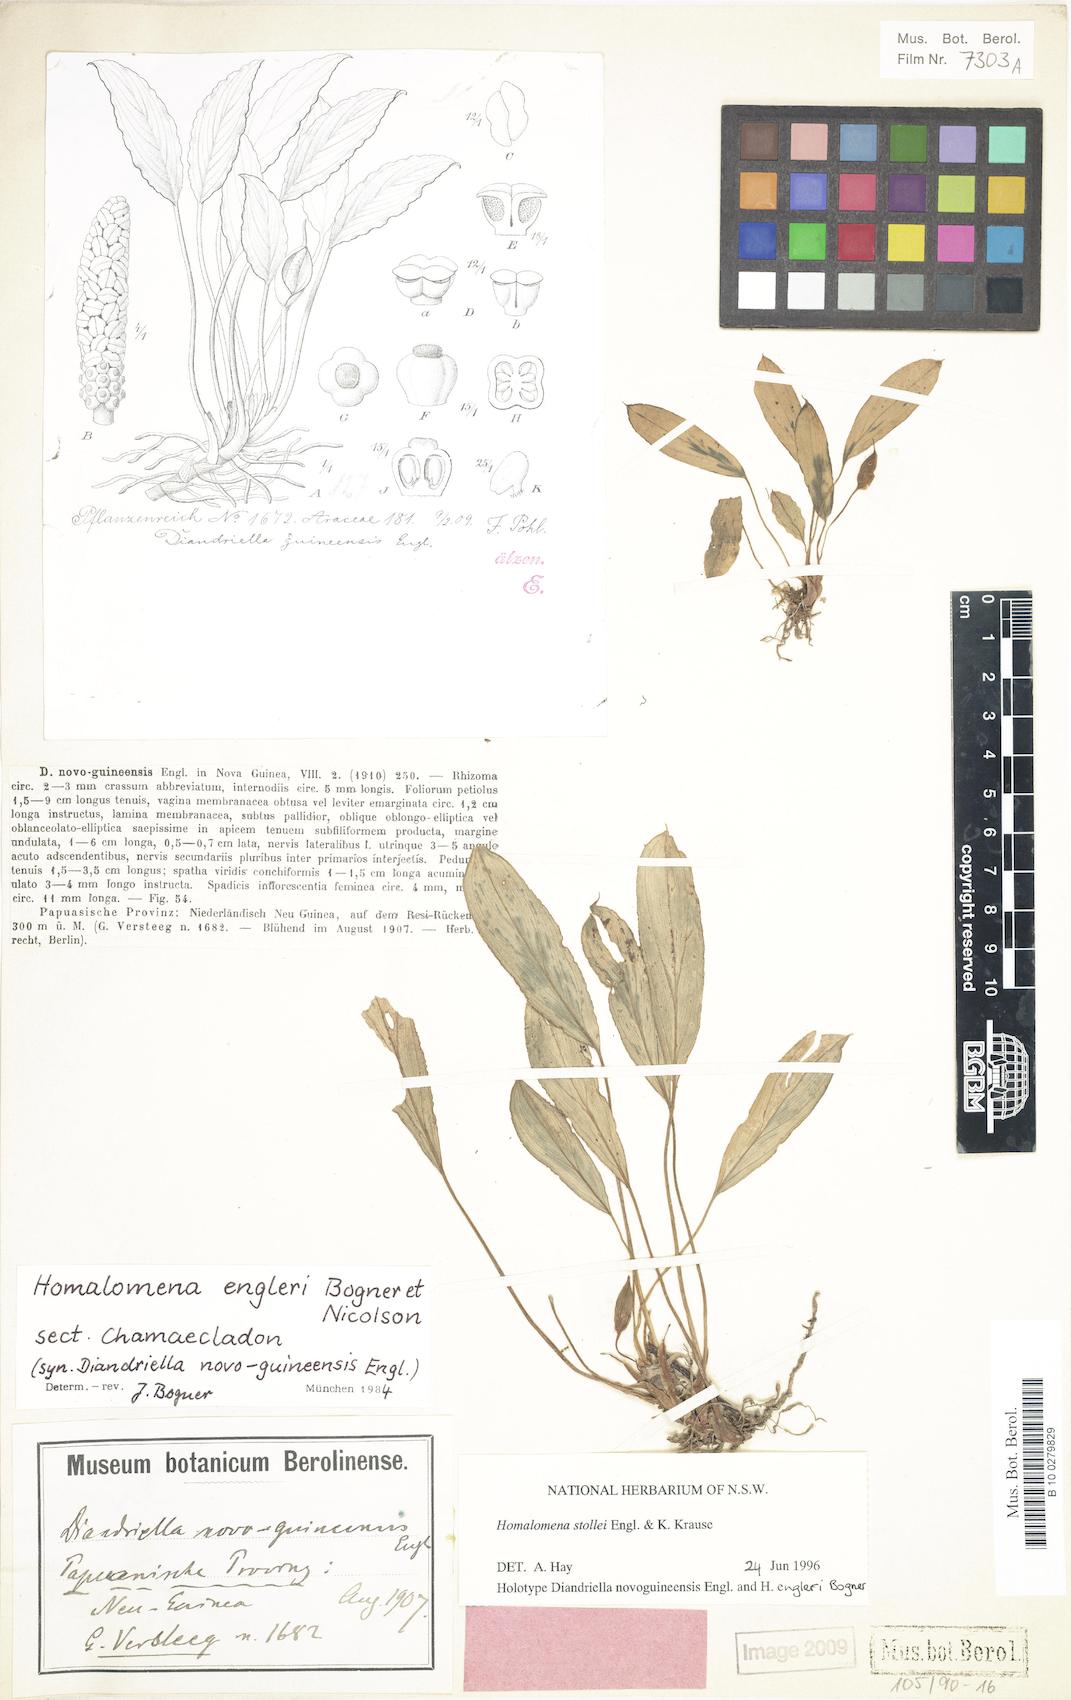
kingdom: Plantae
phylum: Tracheophyta
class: Liliopsida
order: Alismatales
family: Araceae
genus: Homalomena
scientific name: Homalomena stollei
